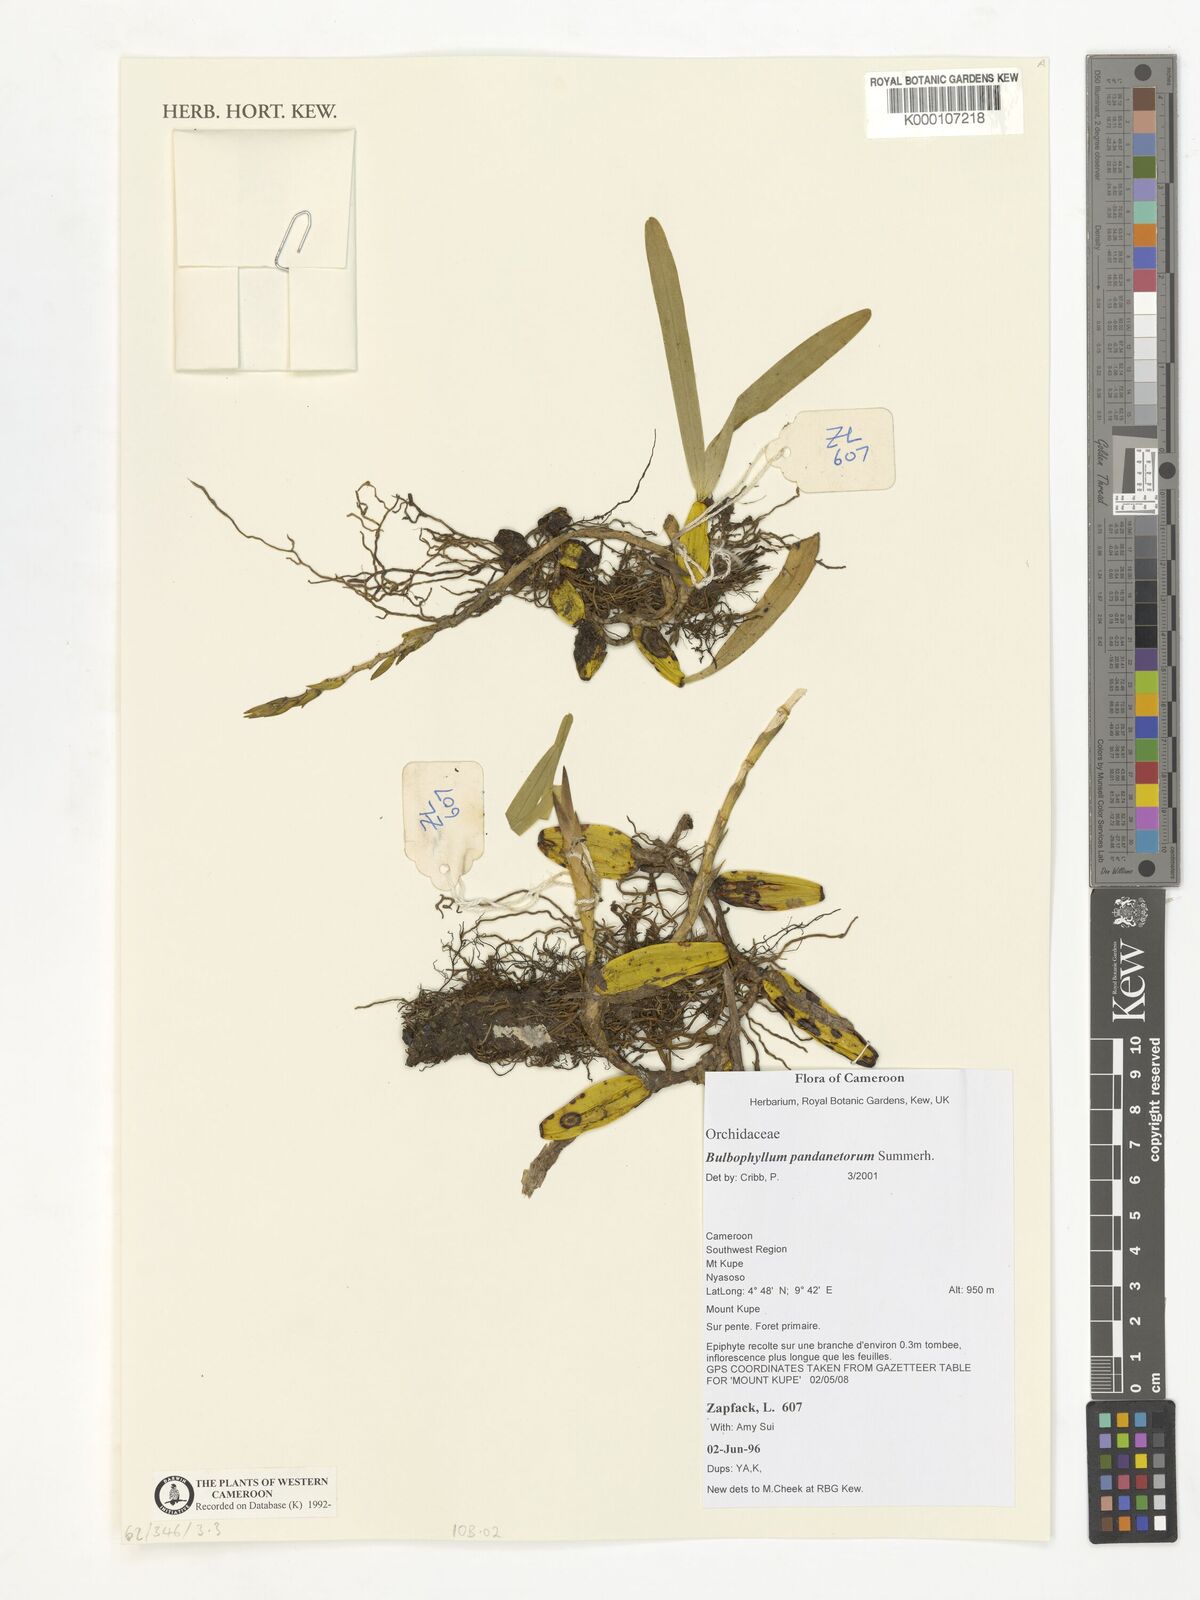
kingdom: Plantae
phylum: Tracheophyta
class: Liliopsida
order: Asparagales
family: Orchidaceae
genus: Bulbophyllum
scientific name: Bulbophyllum pandanetorum
